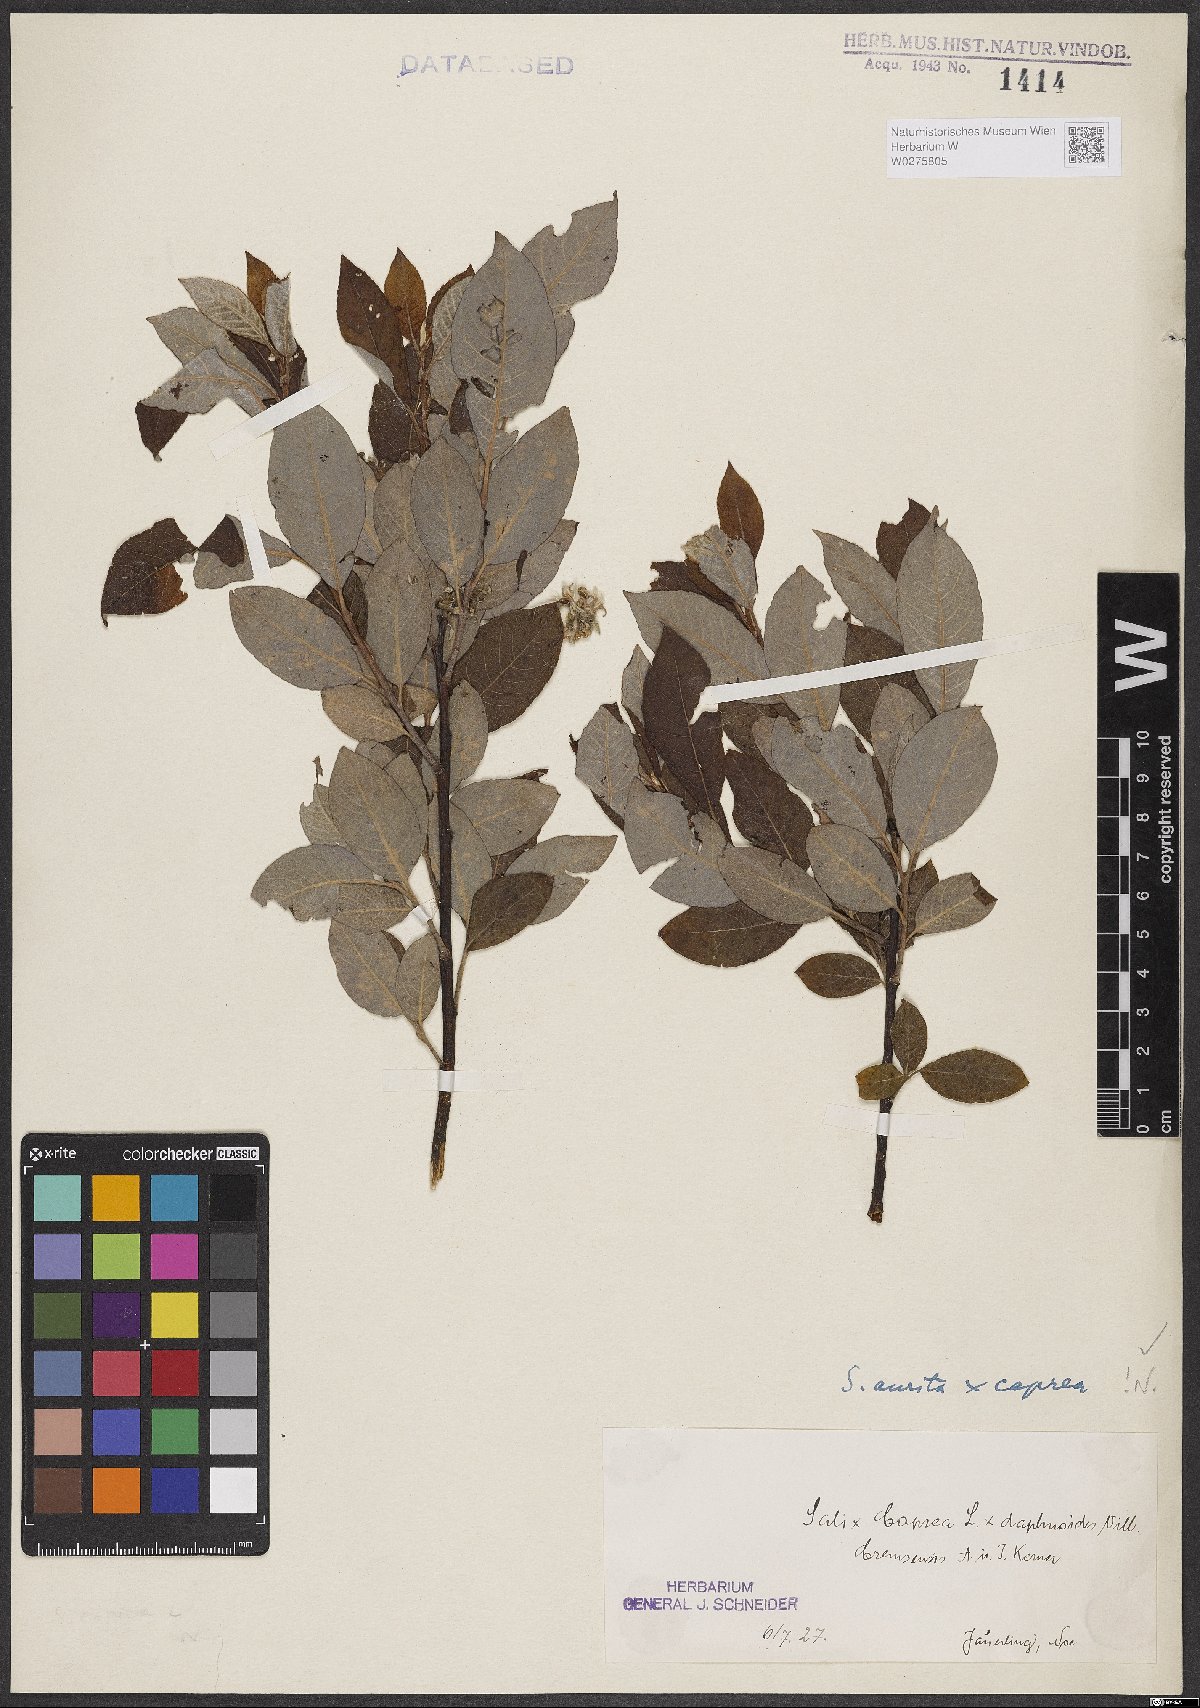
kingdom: Plantae
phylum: Tracheophyta
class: Magnoliopsida
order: Malpighiales
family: Salicaceae
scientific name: Salicaceae
